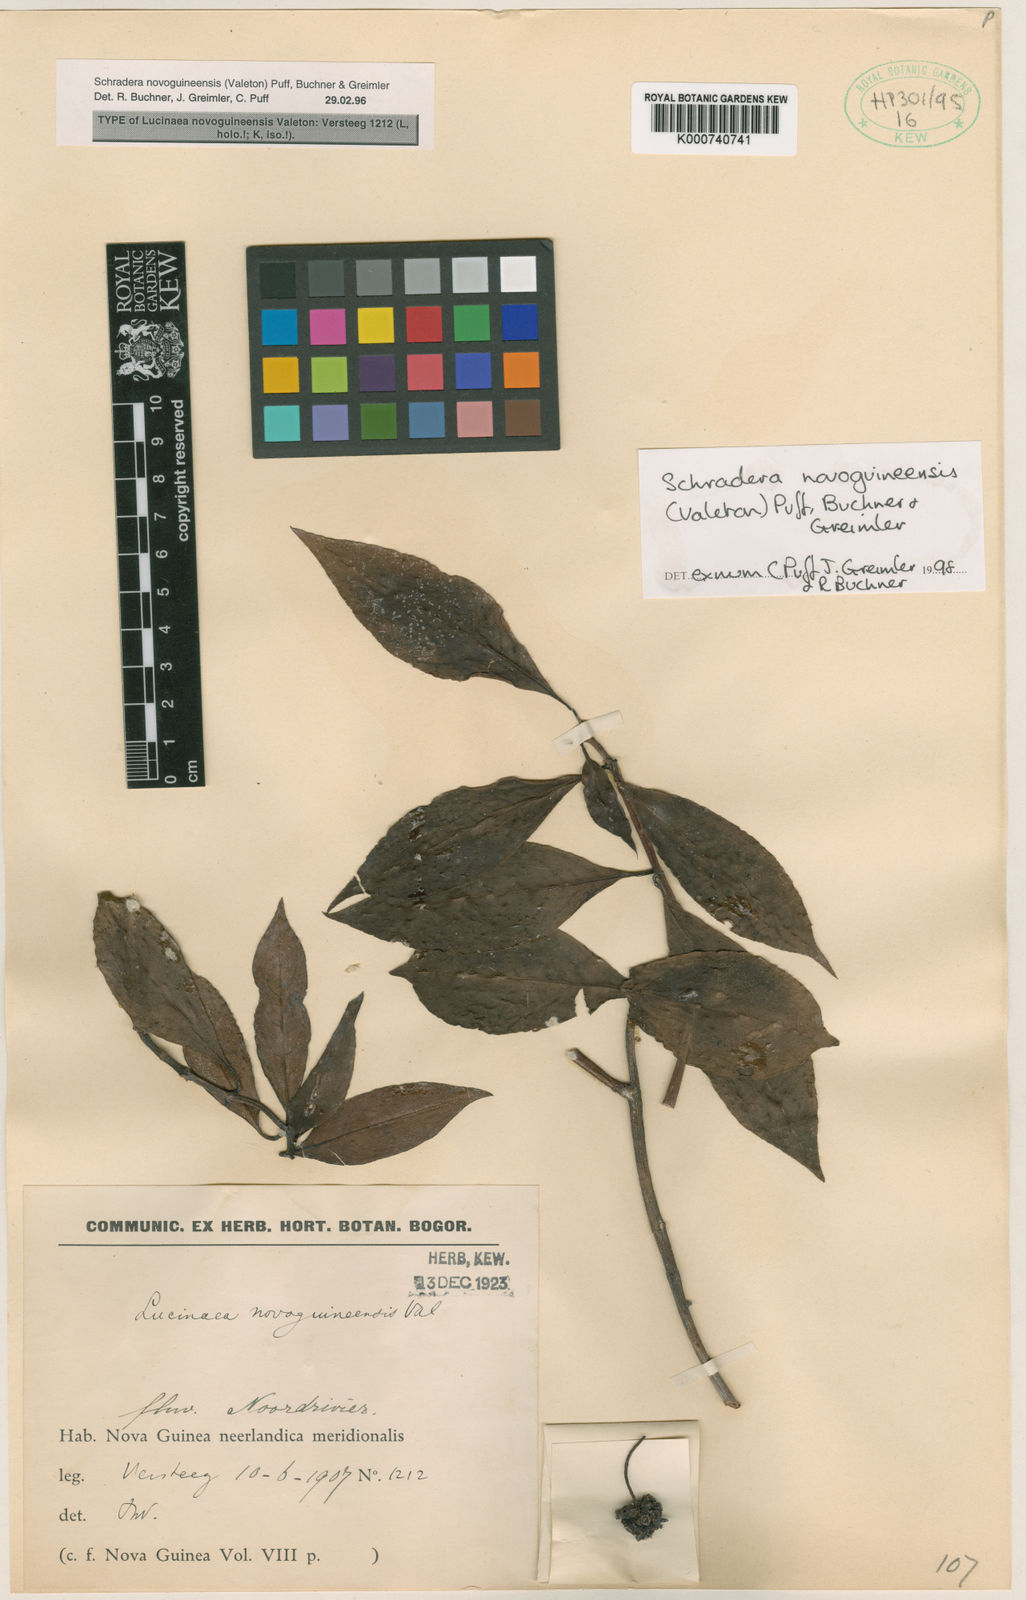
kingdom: Plantae
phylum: Tracheophyta
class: Magnoliopsida
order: Gentianales
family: Rubiaceae
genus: Schradera
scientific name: Schradera novoguineensis
